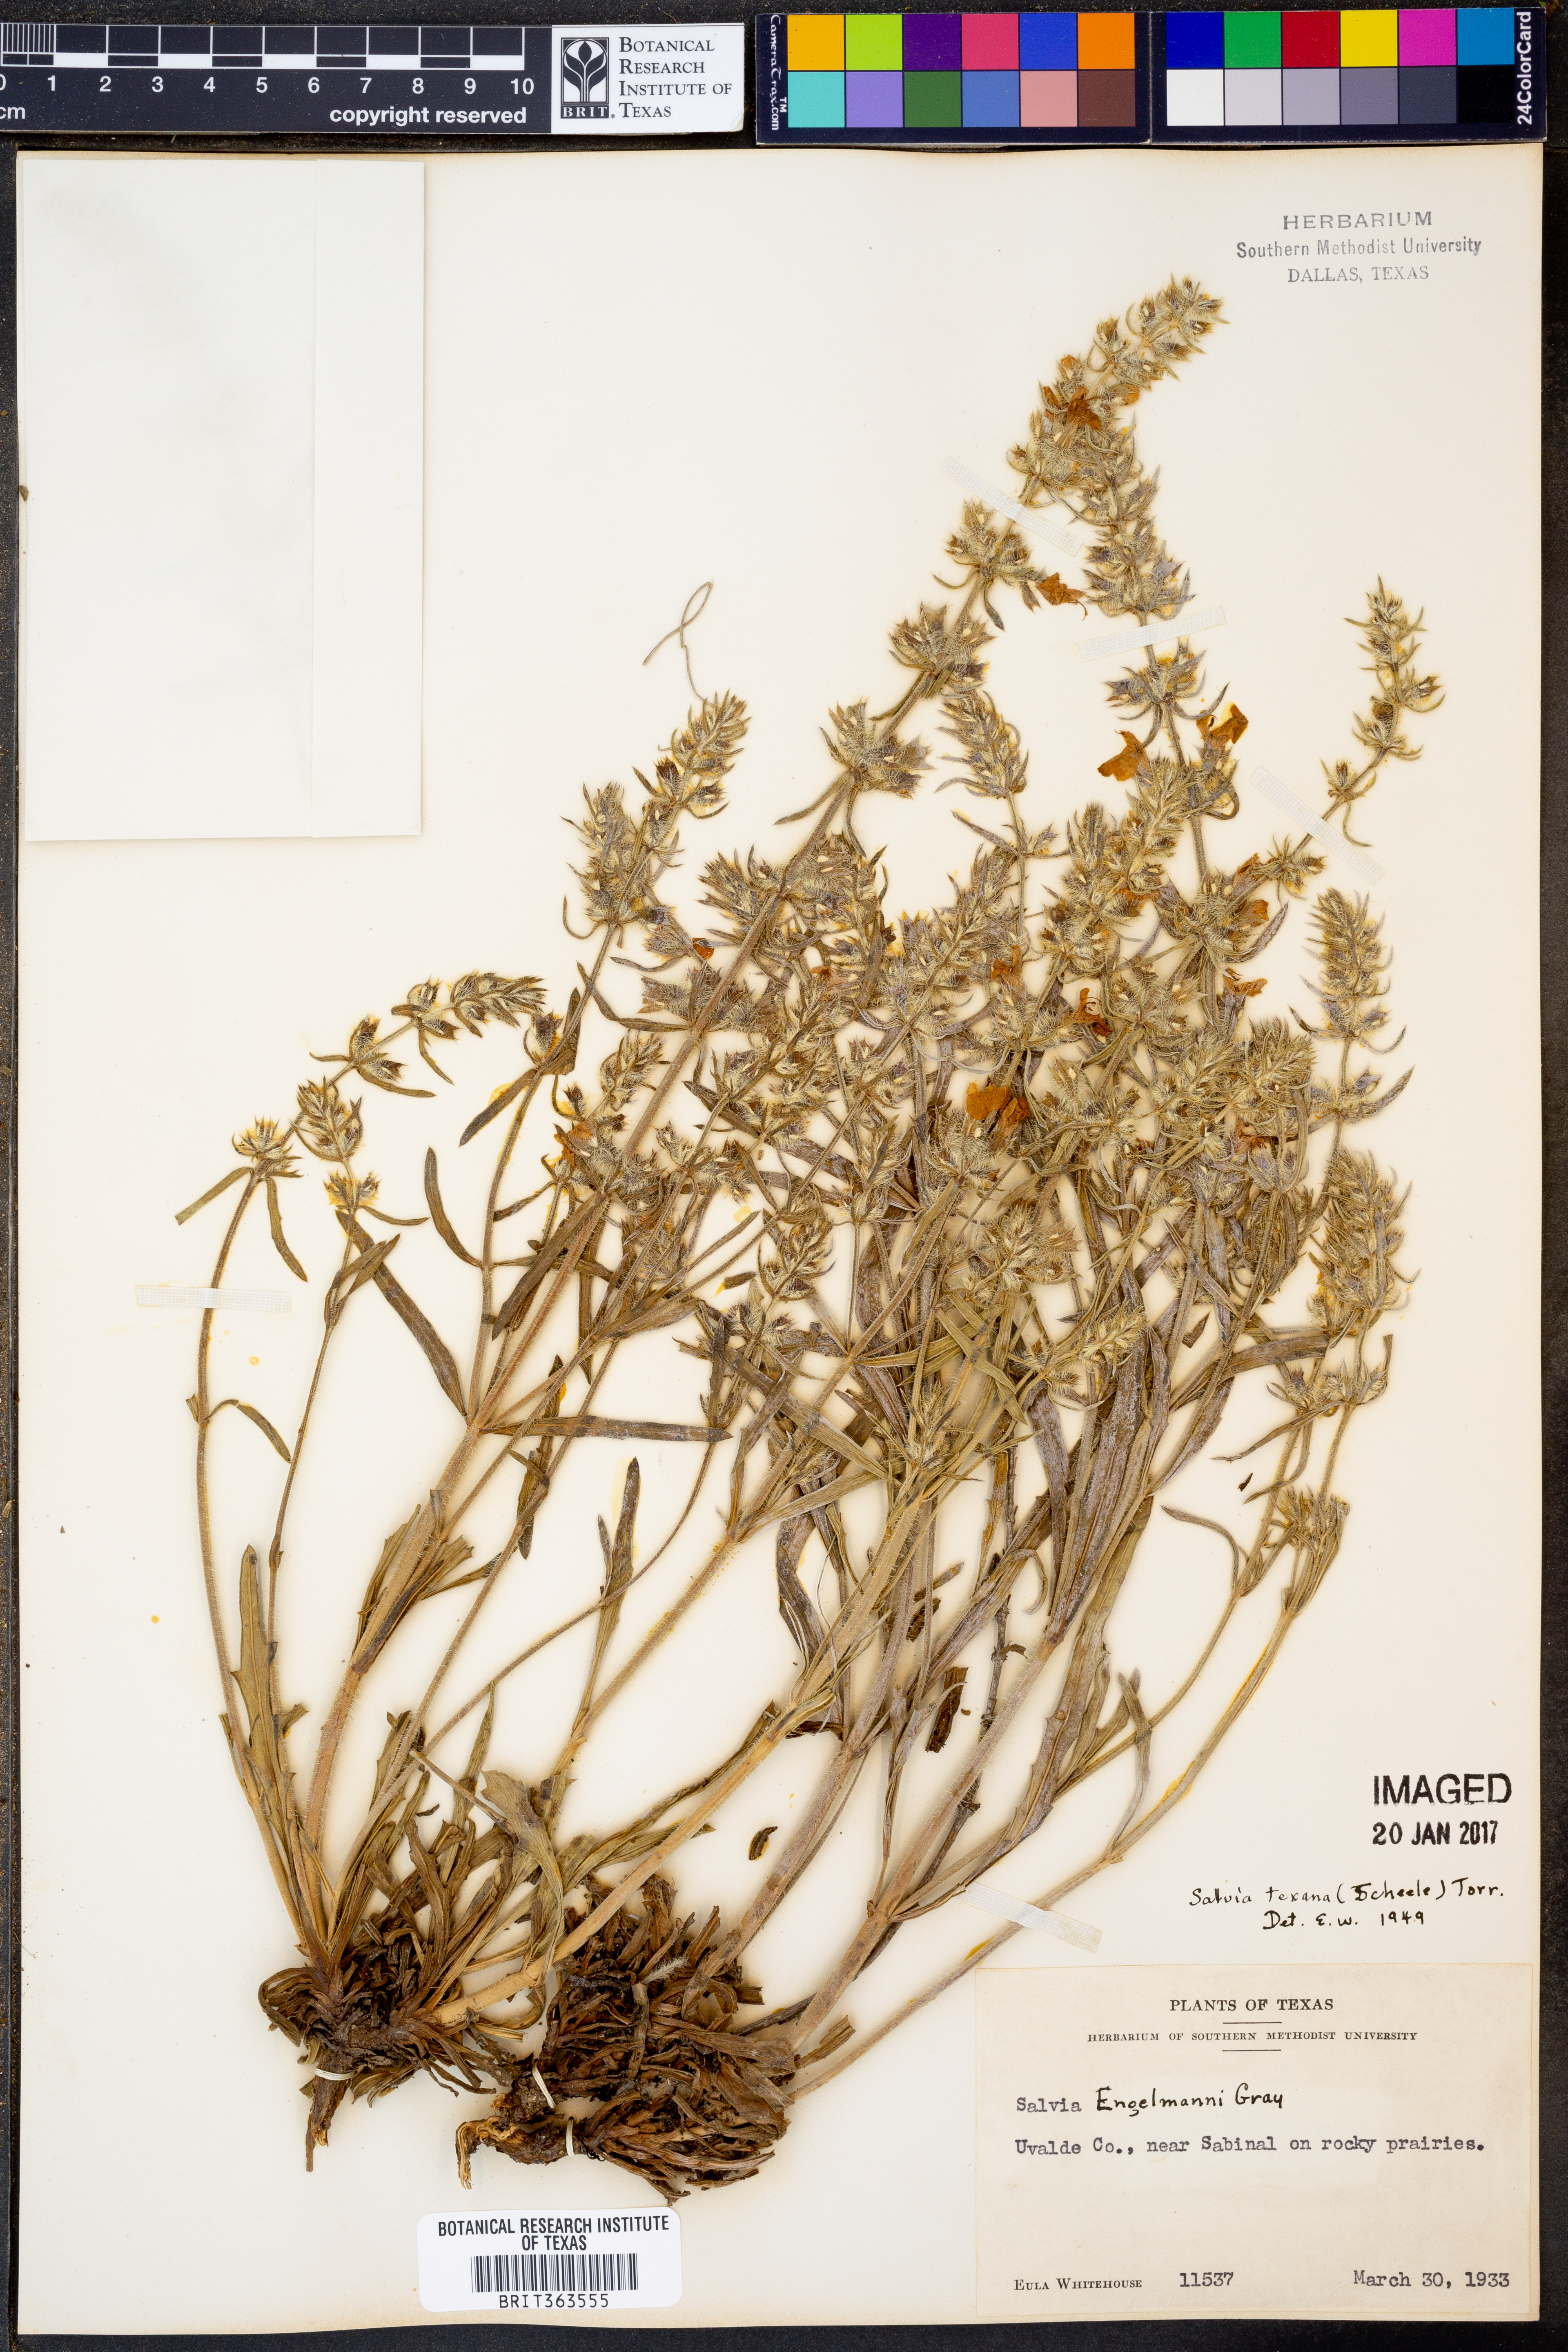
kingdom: Plantae
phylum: Tracheophyta
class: Magnoliopsida
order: Lamiales
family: Lamiaceae
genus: Salvia
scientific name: Salvia texana
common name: Texas sage
